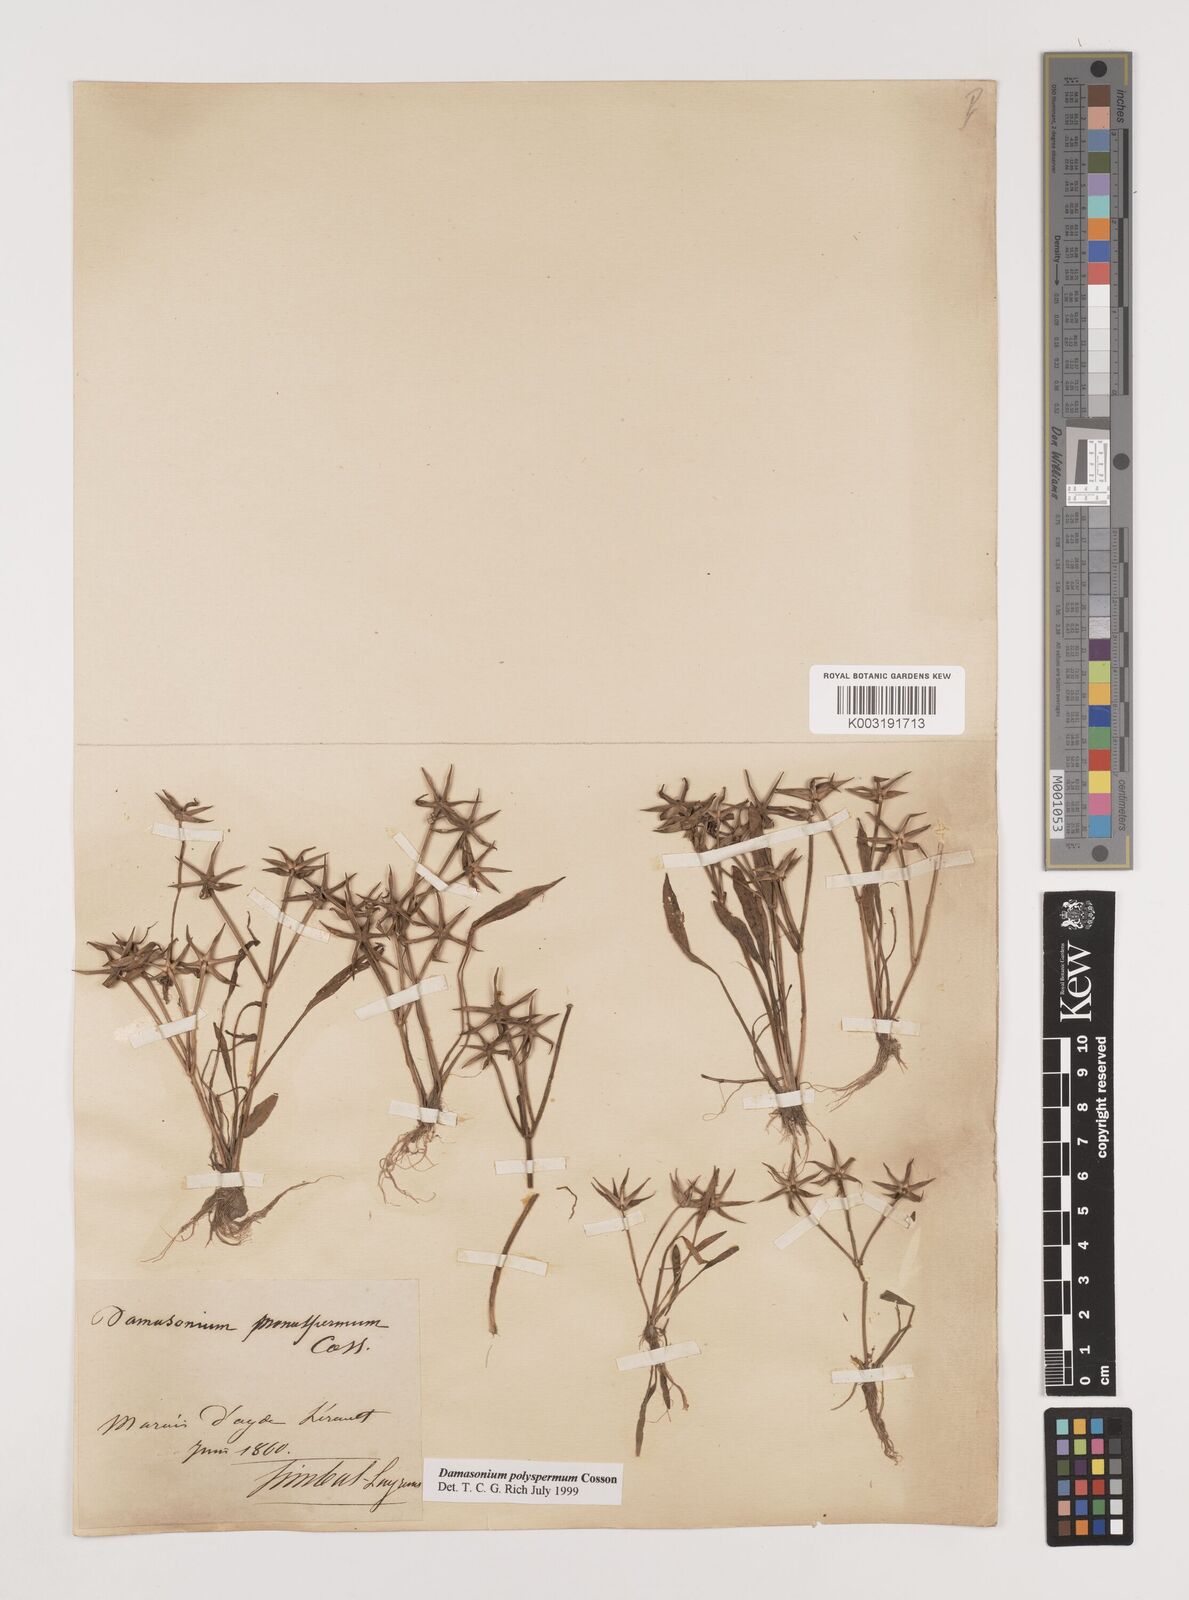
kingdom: Plantae
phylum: Tracheophyta
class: Liliopsida
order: Alismatales
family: Alismataceae
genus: Damasonium
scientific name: Damasonium polyspermum
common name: Starfruit
